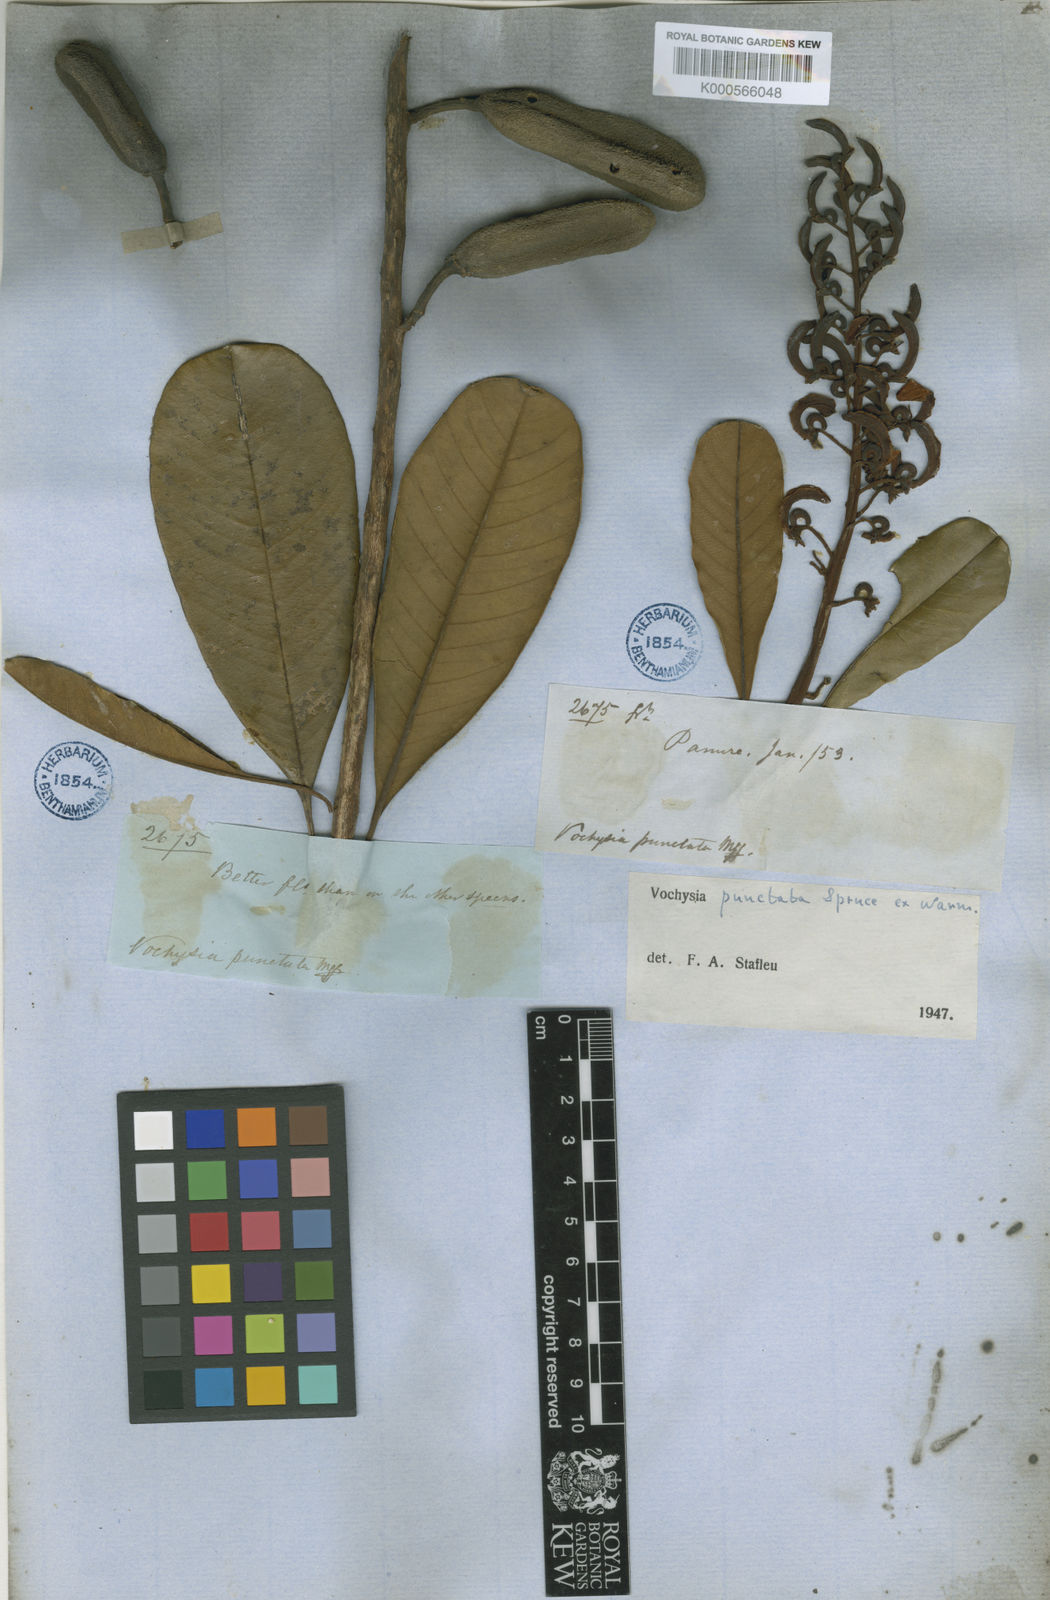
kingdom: Plantae
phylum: Tracheophyta
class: Magnoliopsida
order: Myrtales
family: Vochysiaceae
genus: Vochysia
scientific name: Vochysia punctata
